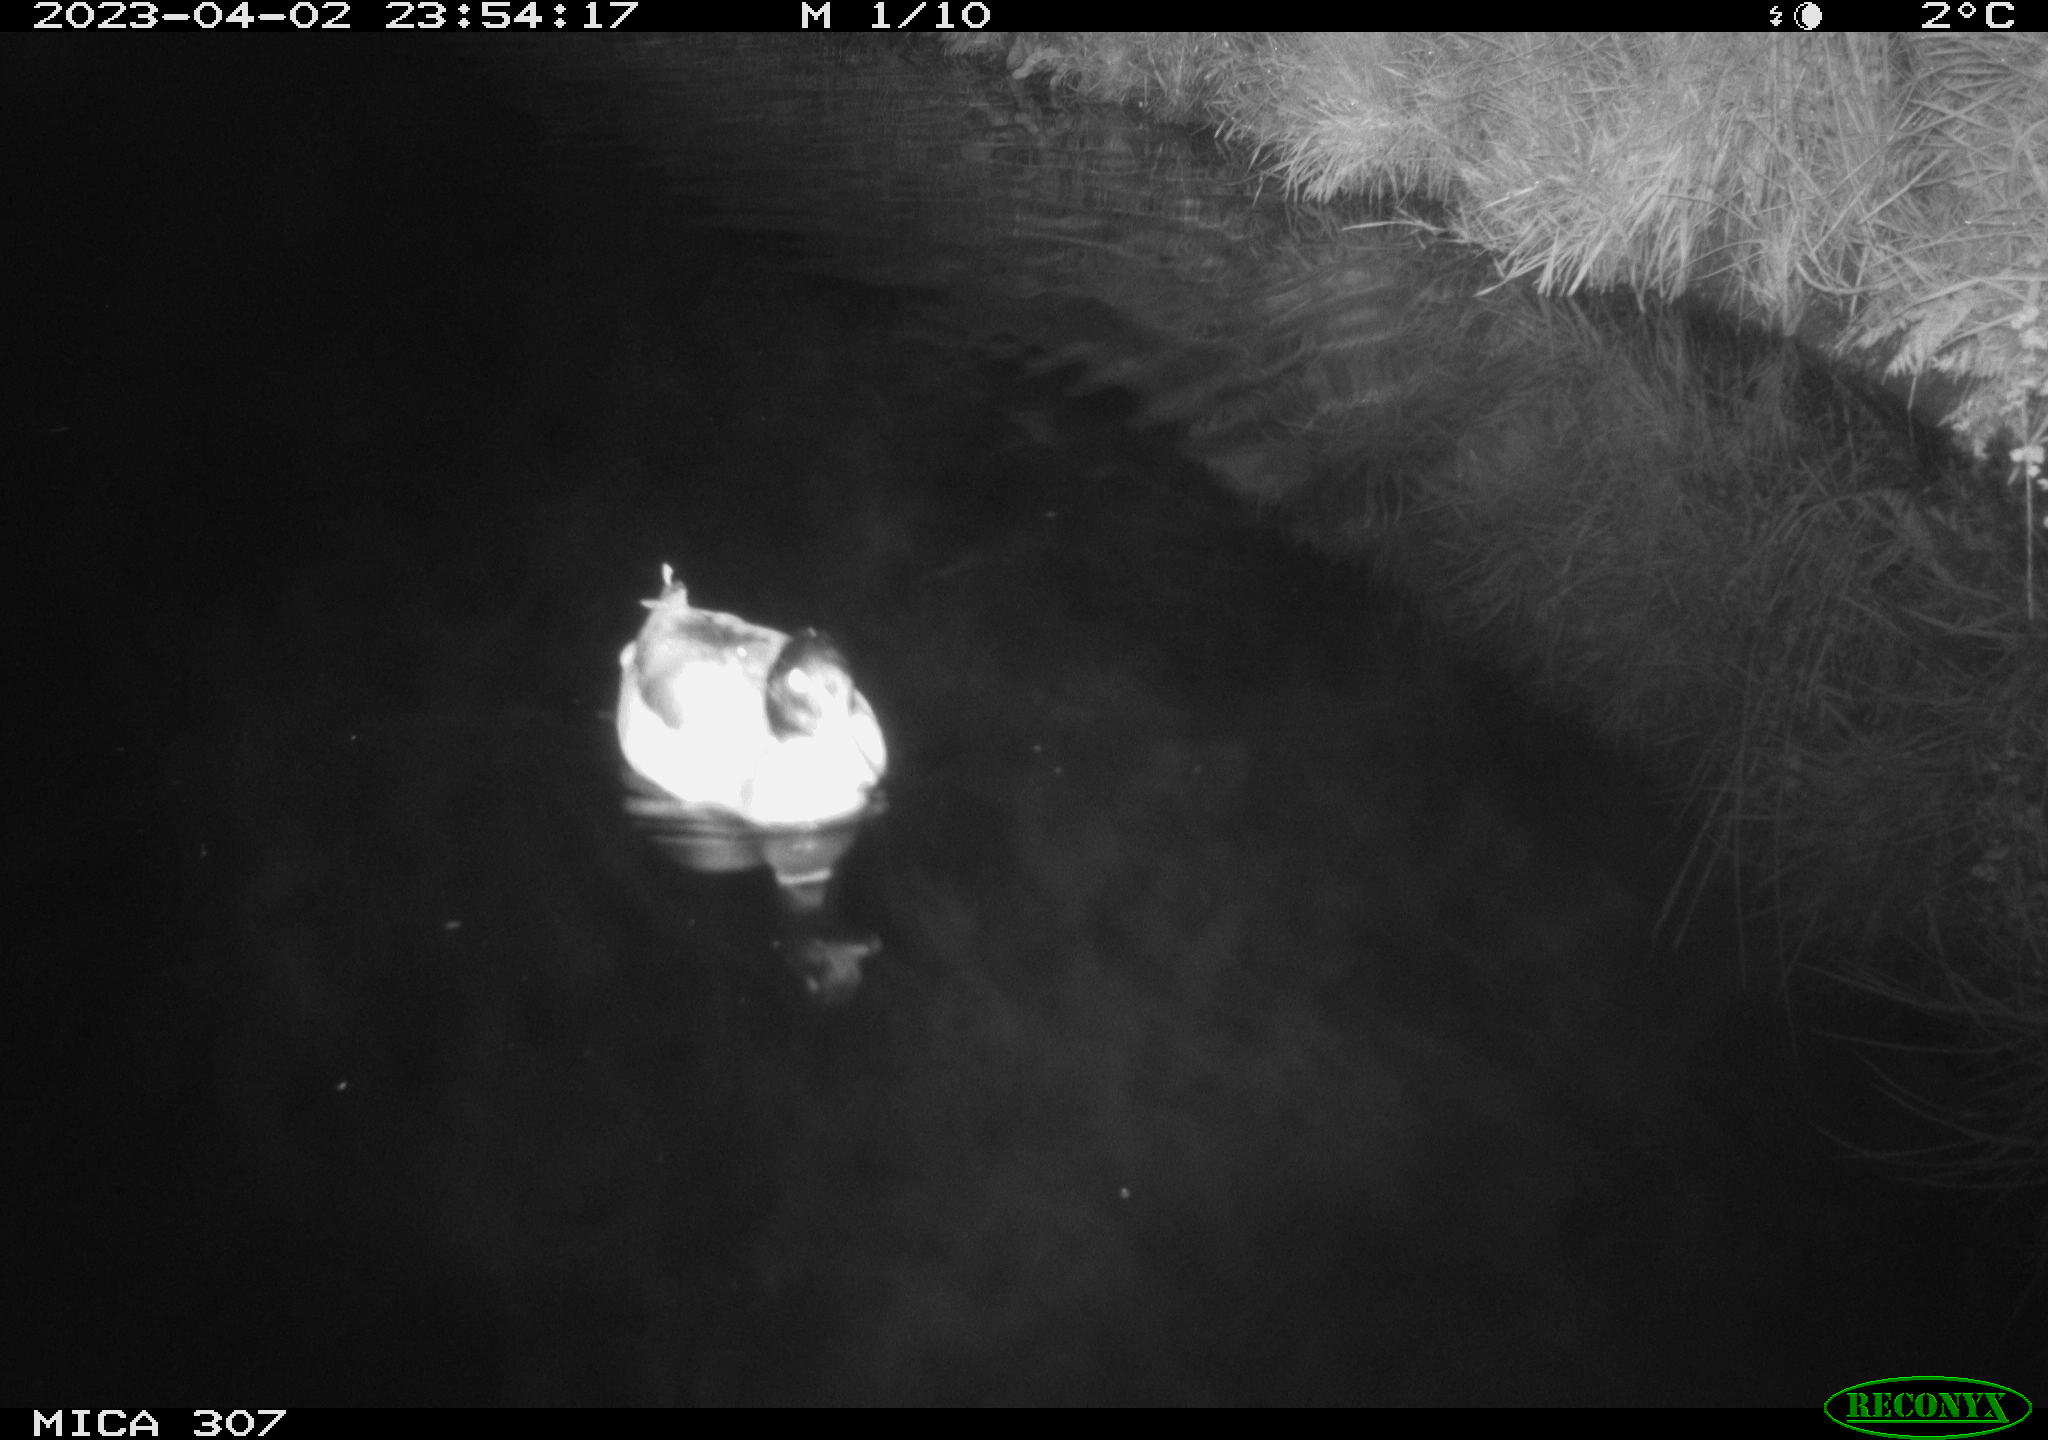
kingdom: Animalia
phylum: Chordata
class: Aves
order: Anseriformes
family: Anatidae
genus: Anas
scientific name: Anas
